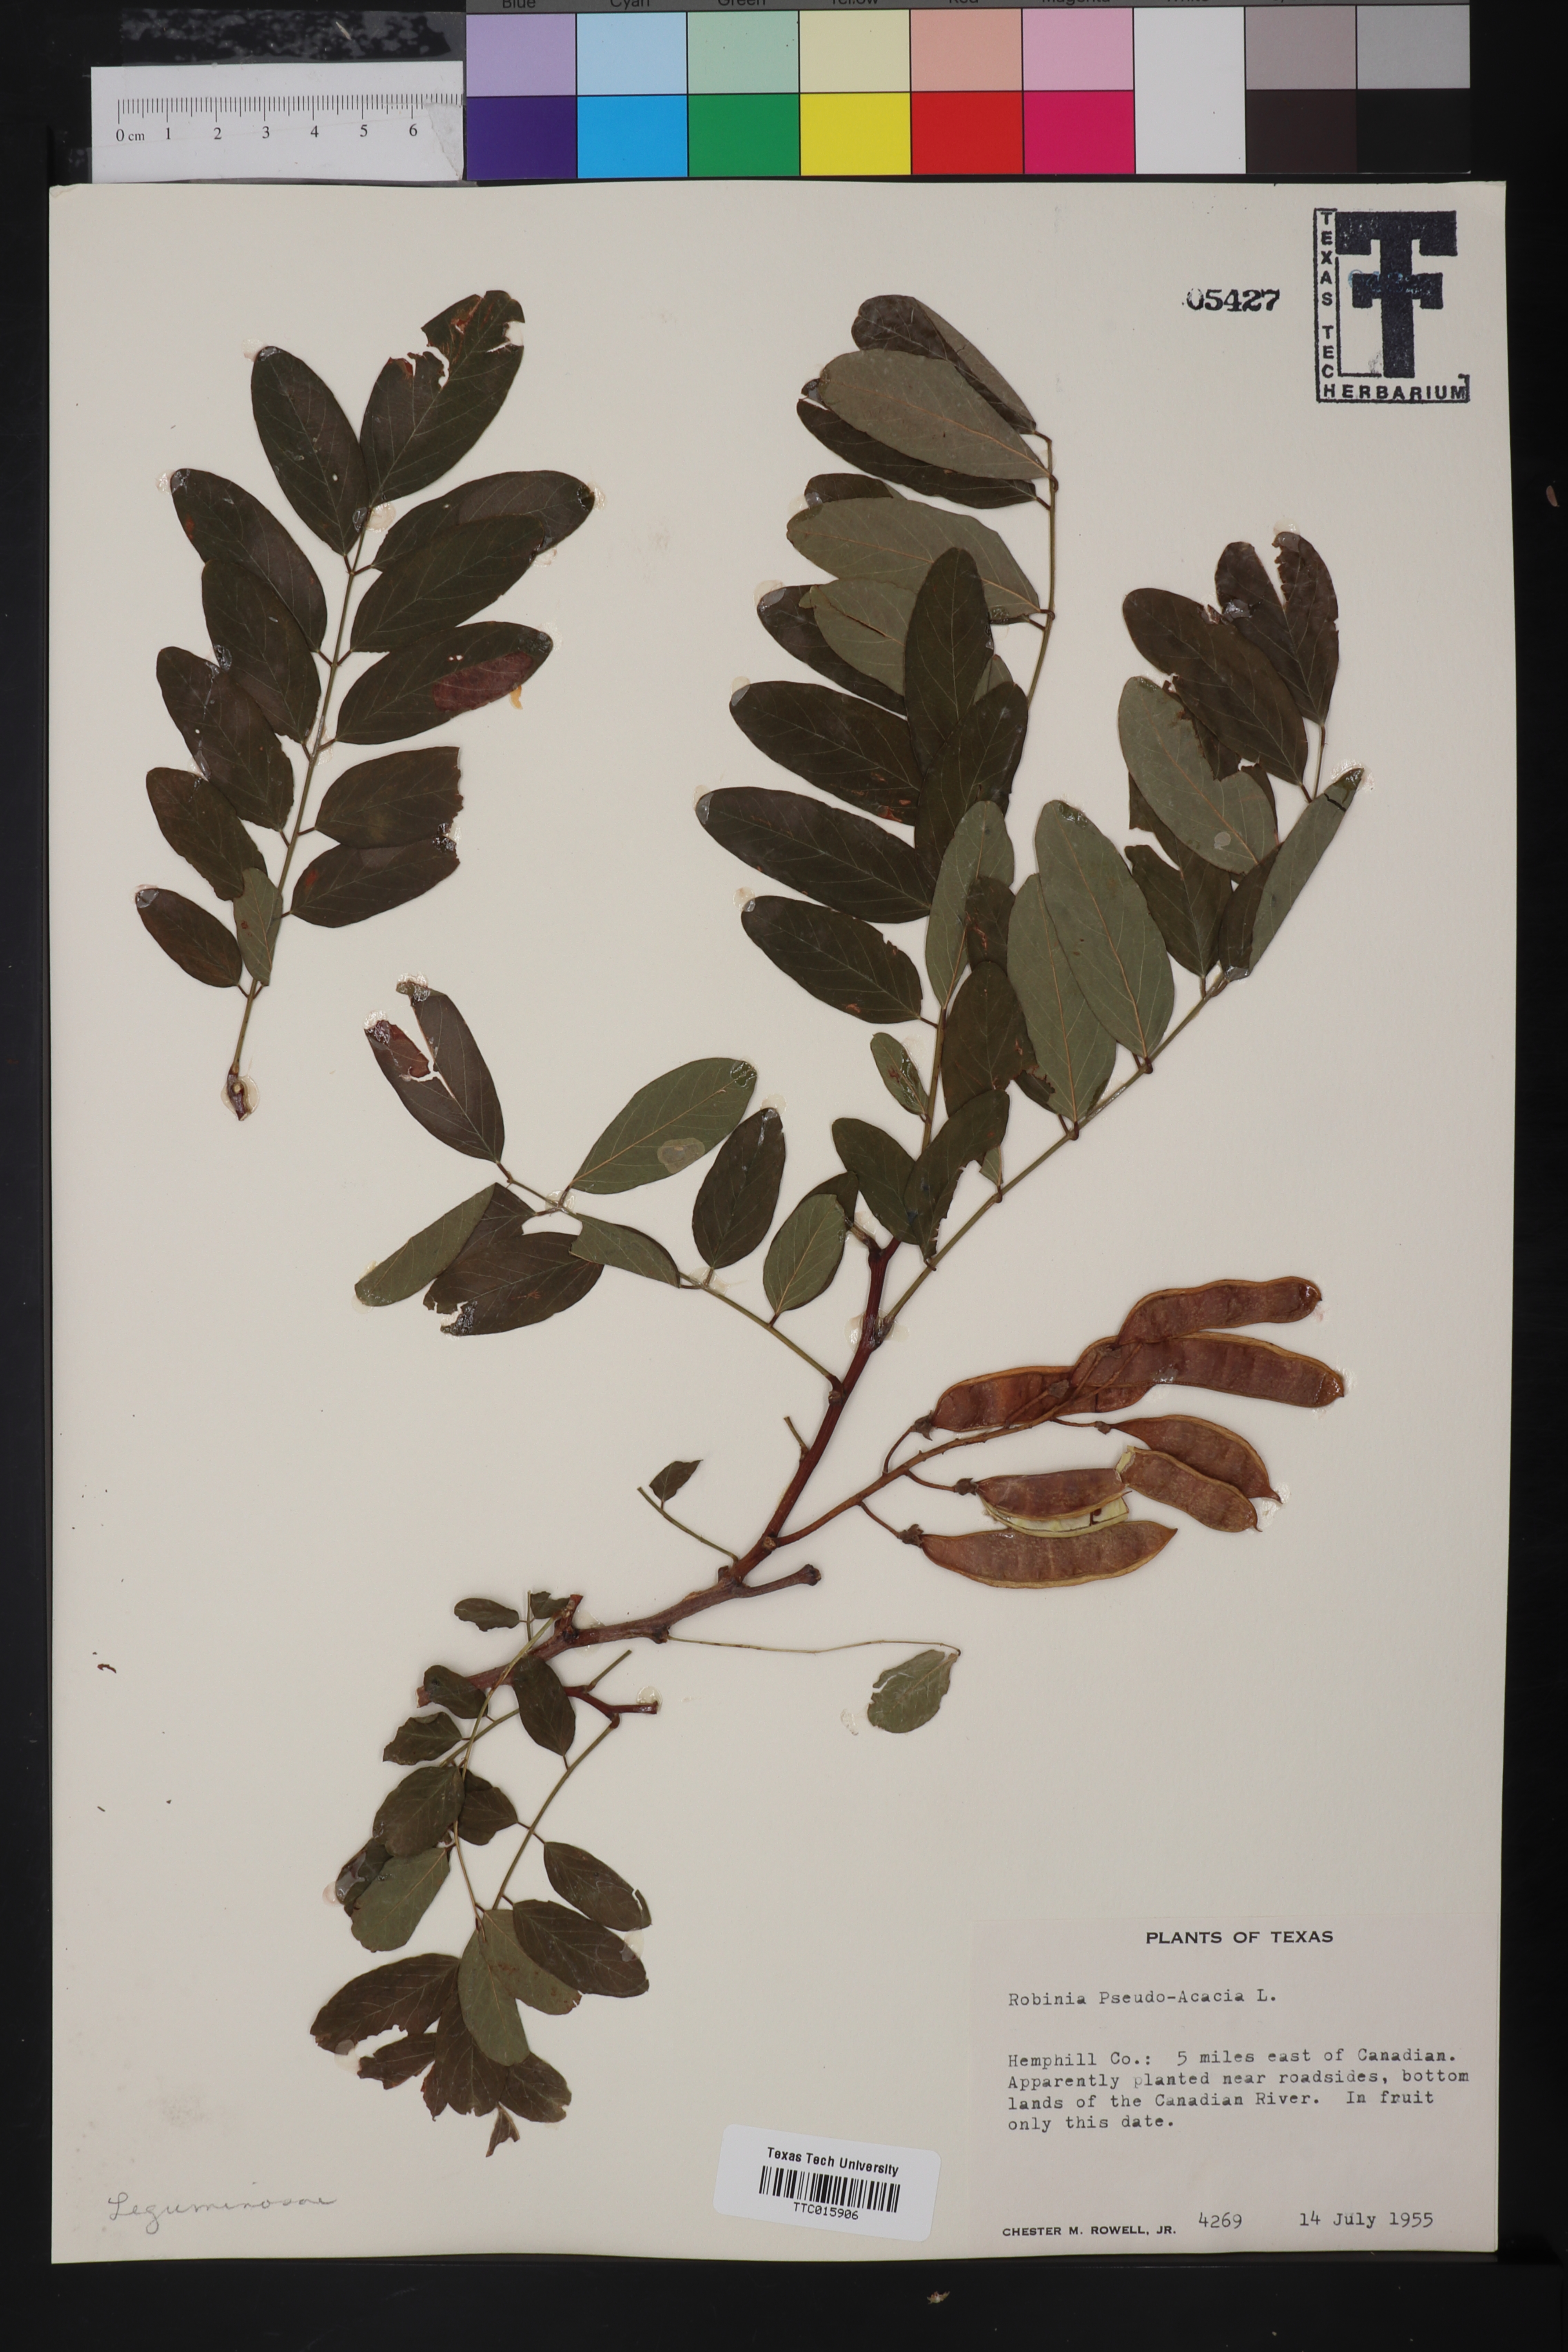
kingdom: Plantae
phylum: Tracheophyta
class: Magnoliopsida
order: Fabales
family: Fabaceae
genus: Robinia
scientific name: Robinia pseudoacacia
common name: Black locust
